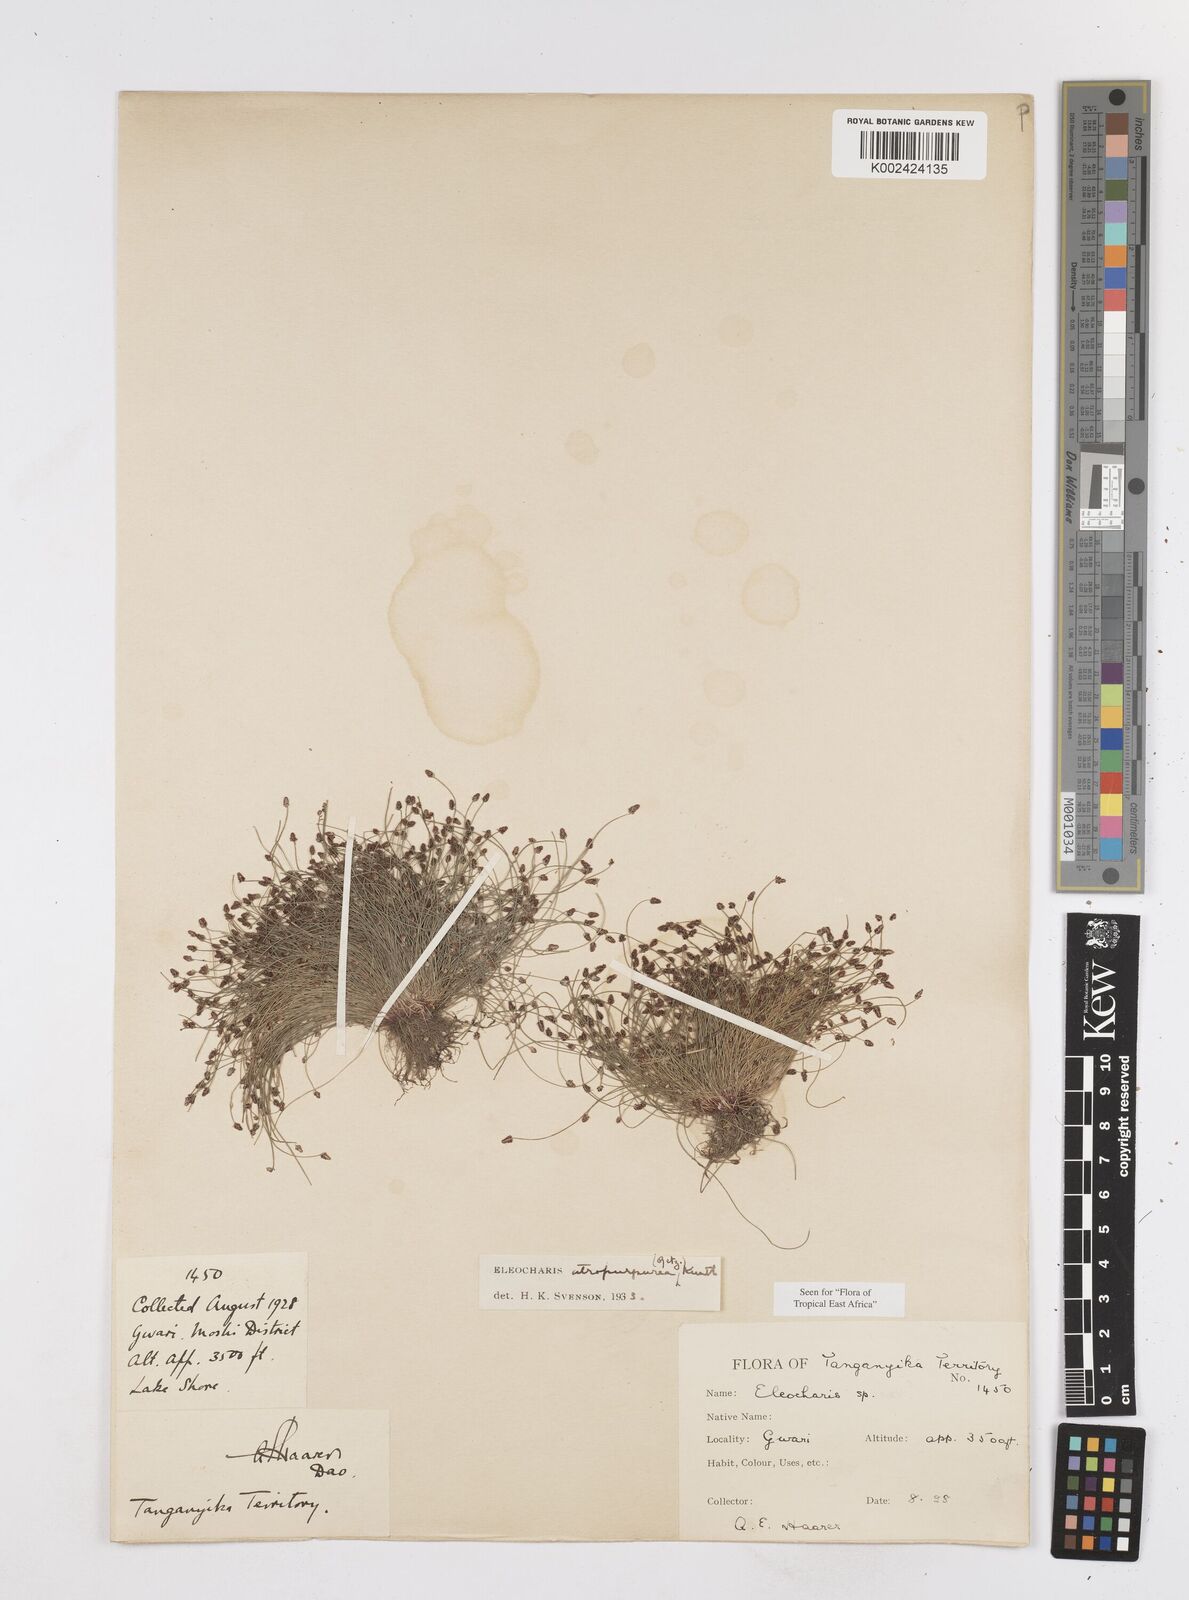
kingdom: Plantae
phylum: Tracheophyta
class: Liliopsida
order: Poales
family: Cyperaceae
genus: Eleocharis
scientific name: Eleocharis atropurpurea
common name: Purple spikerush
